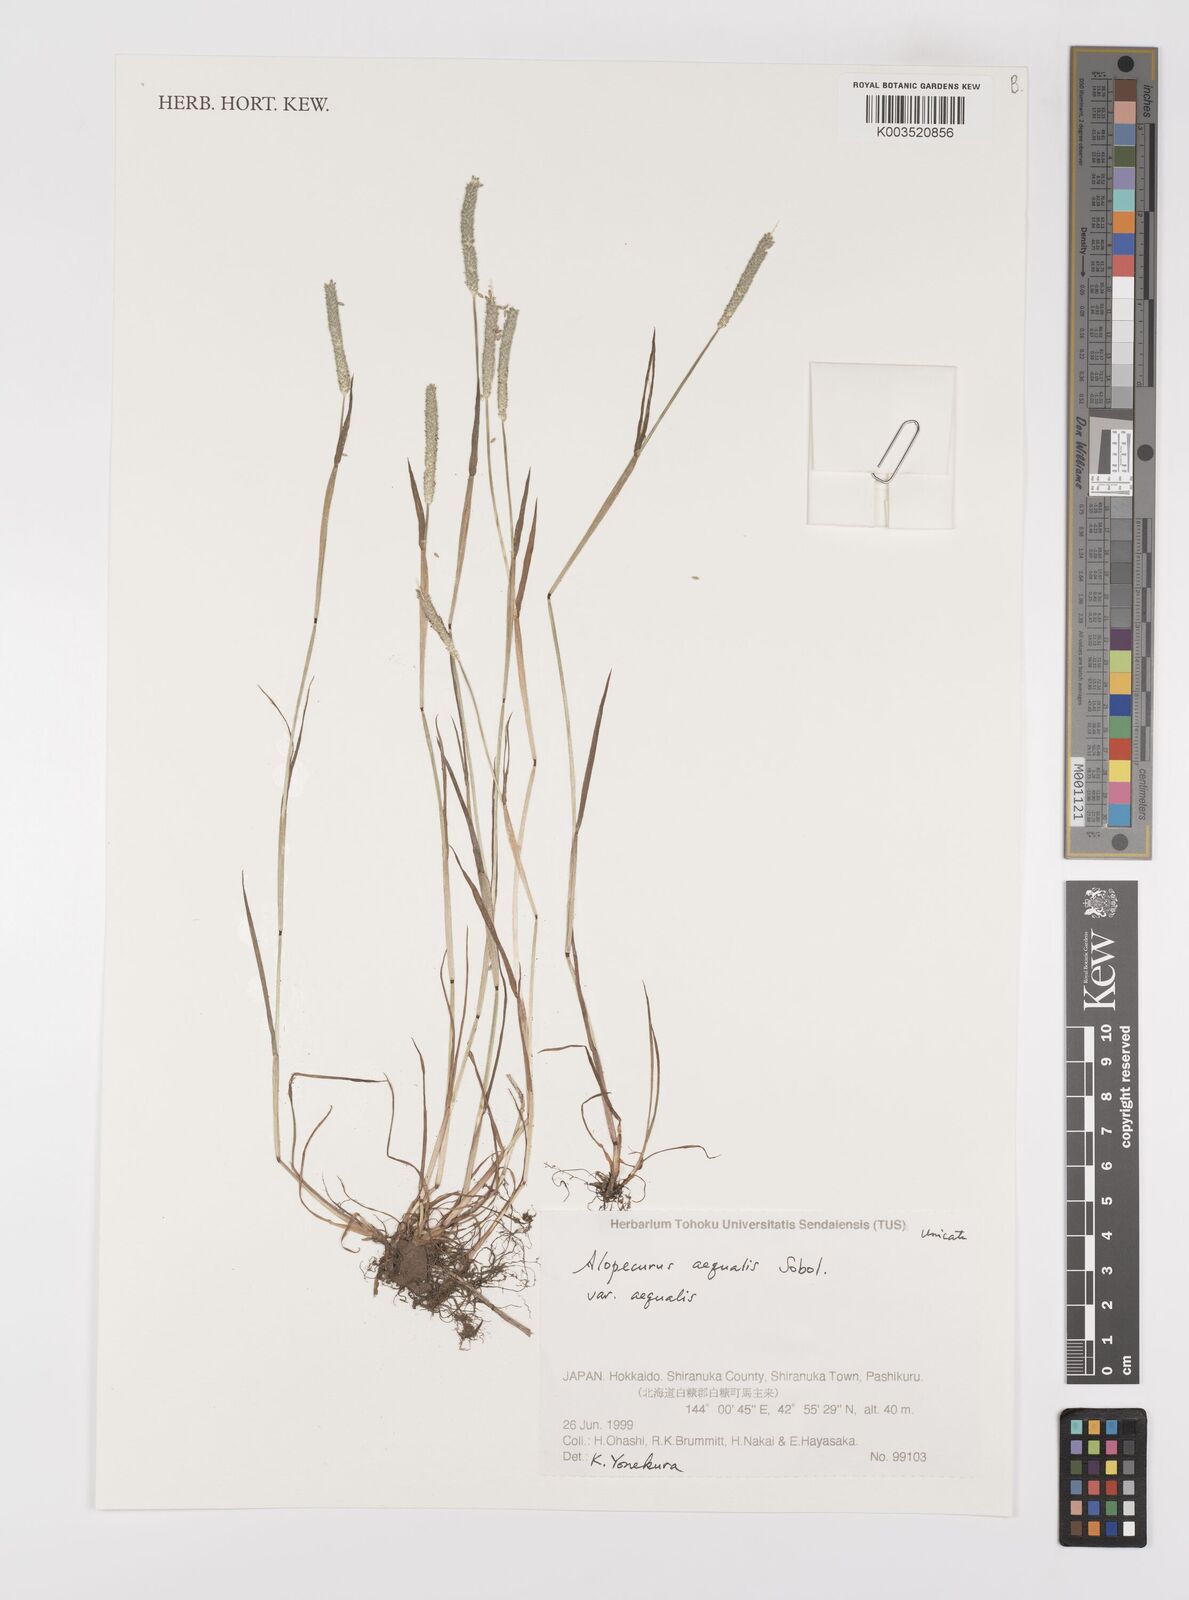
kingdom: Plantae
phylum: Tracheophyta
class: Liliopsida
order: Poales
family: Poaceae
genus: Alopecurus
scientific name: Alopecurus aequalis
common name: Orange foxtail
